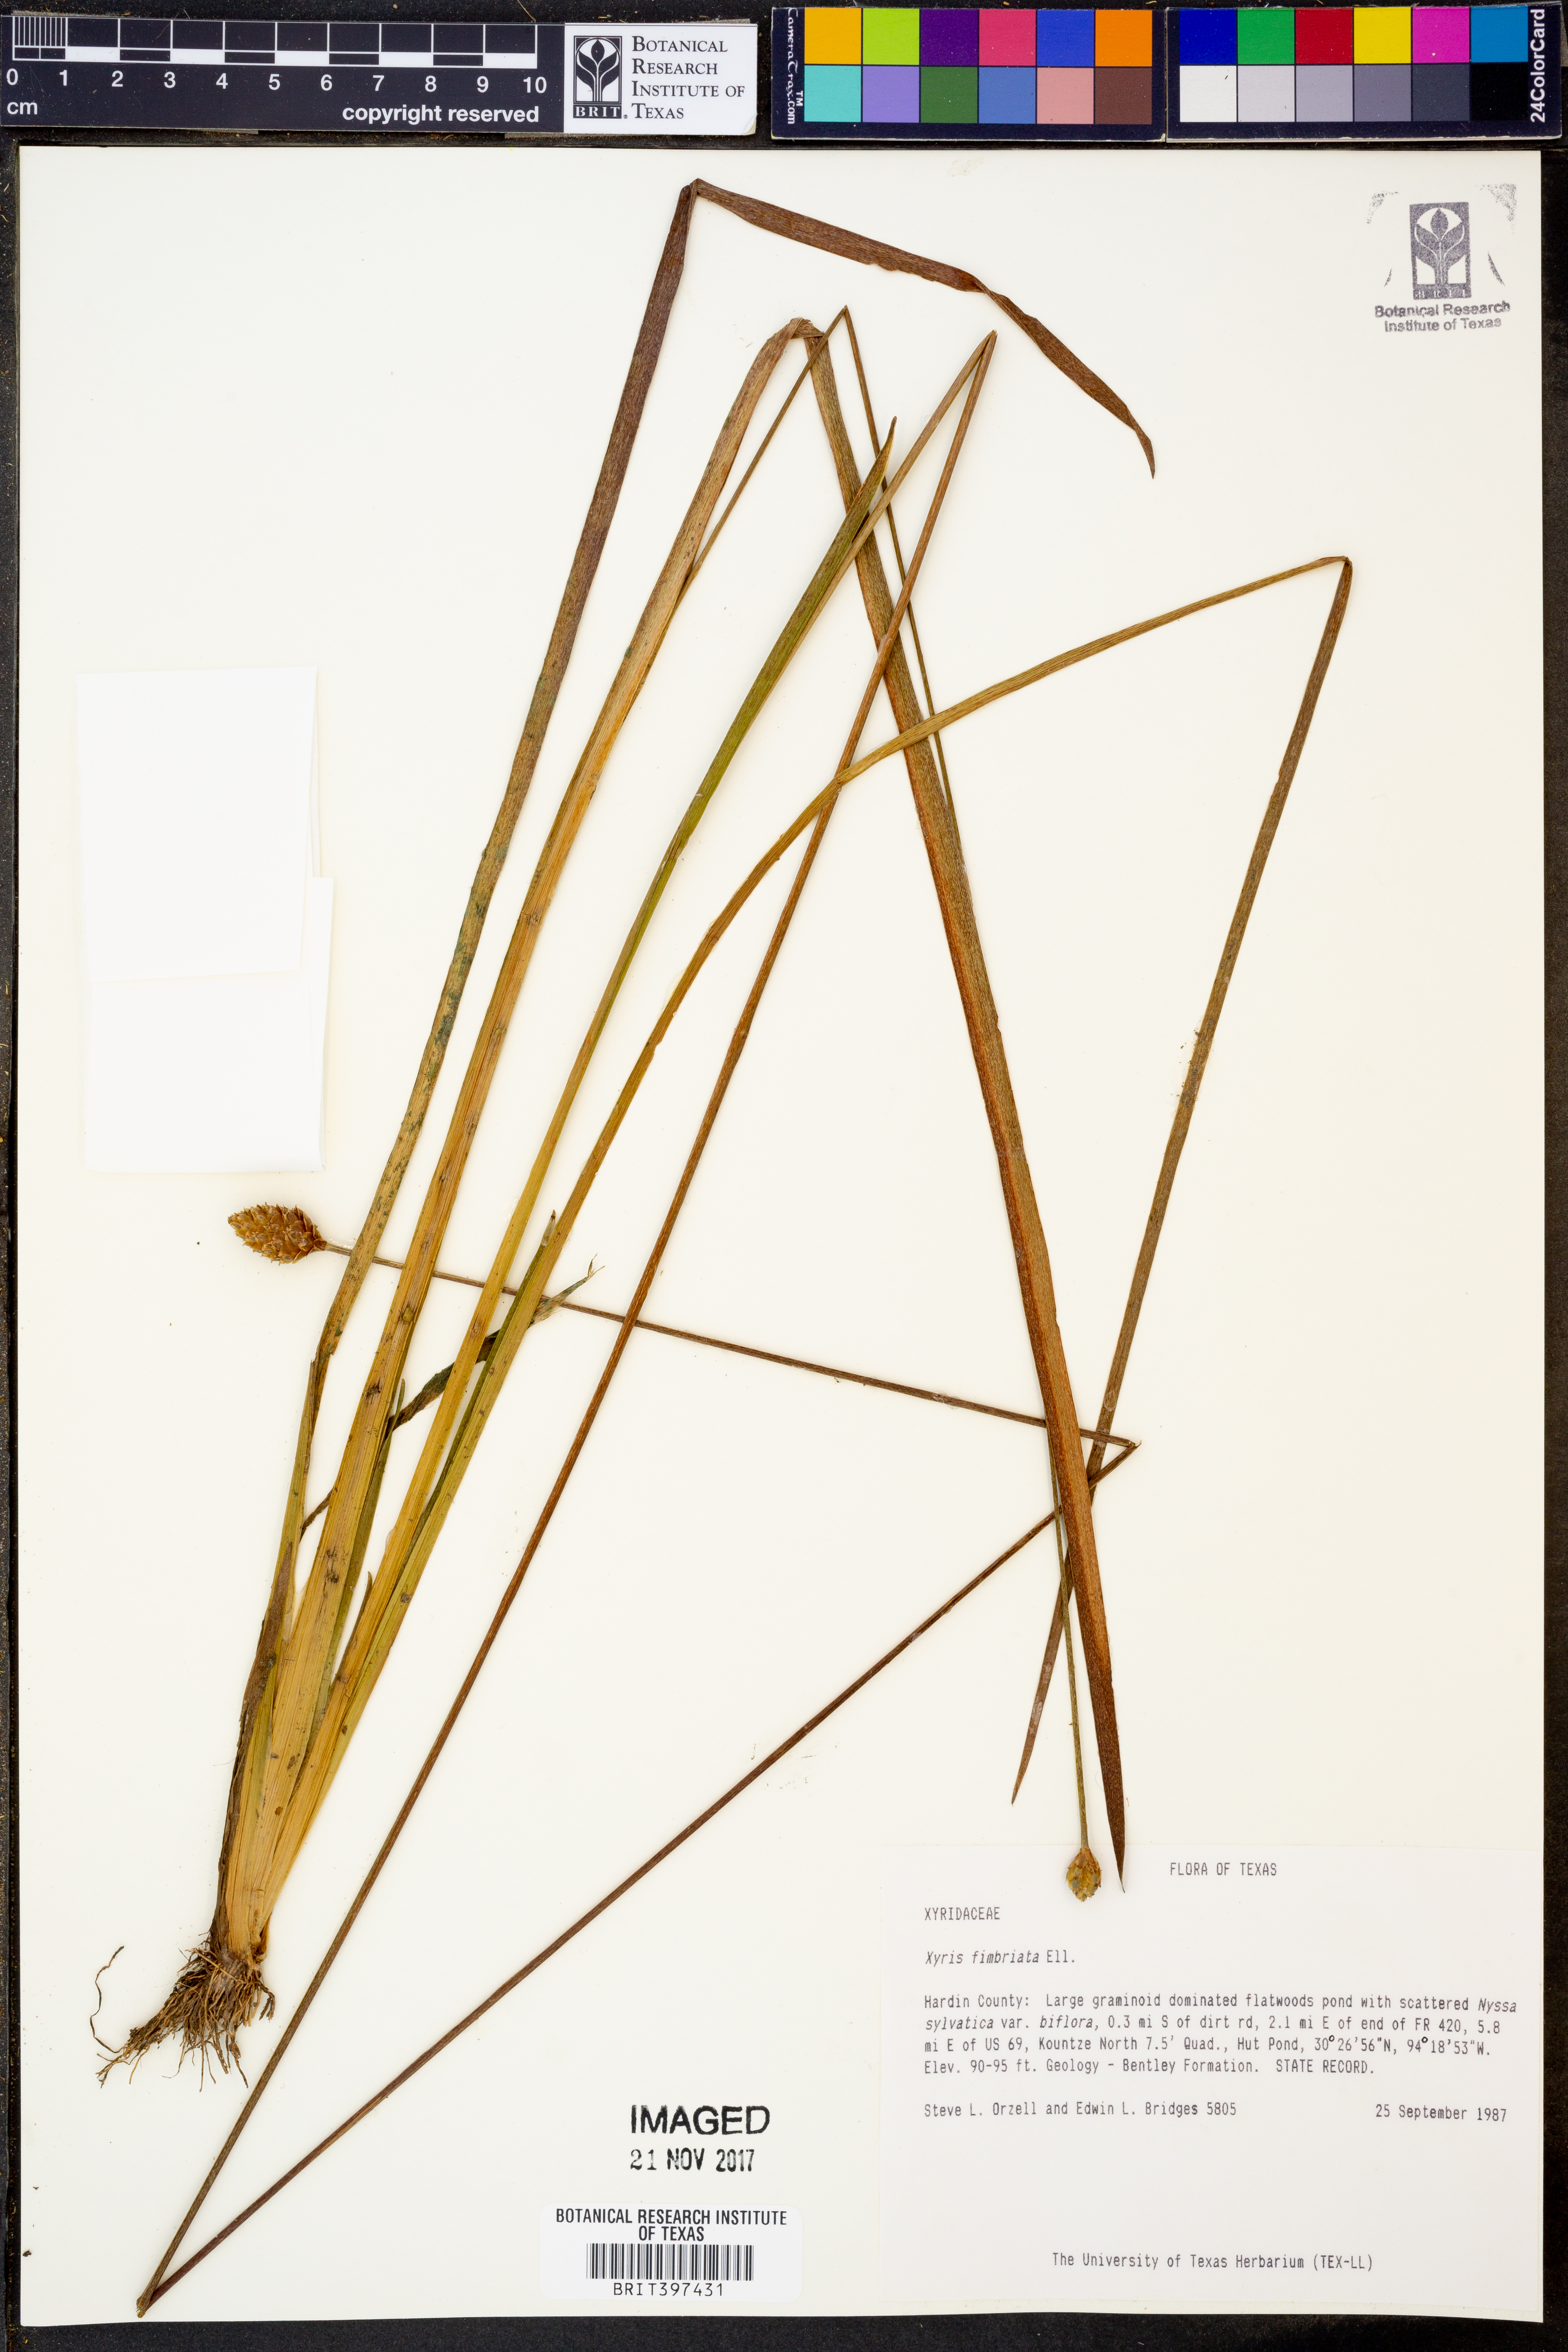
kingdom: Plantae
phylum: Tracheophyta
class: Liliopsida
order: Poales
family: Xyridaceae
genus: Xyris
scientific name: Xyris fimbriata
